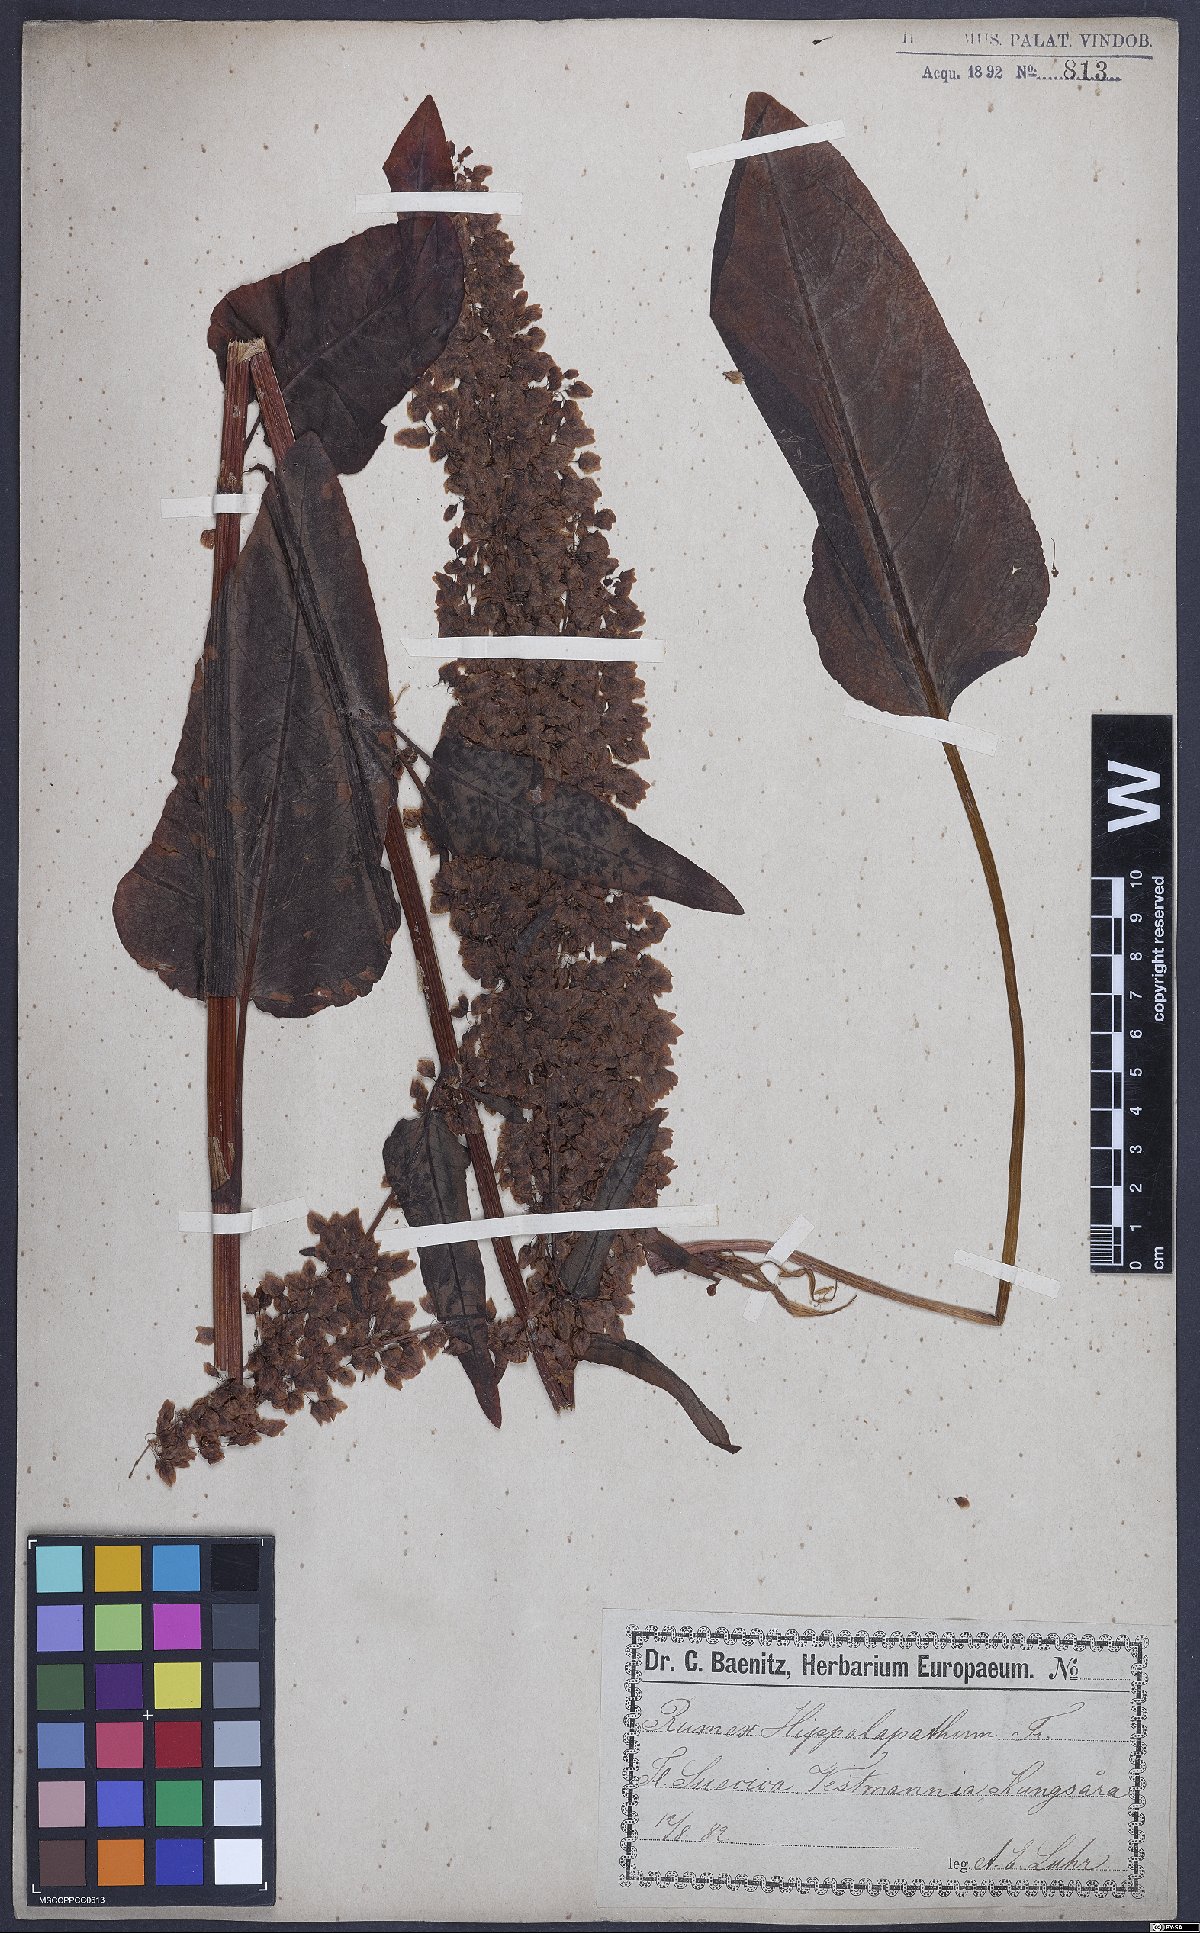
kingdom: Plantae
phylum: Tracheophyta
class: Magnoliopsida
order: Caryophyllales
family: Polygonaceae
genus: Rumex
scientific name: Rumex aquaticus
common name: Scottish dock
